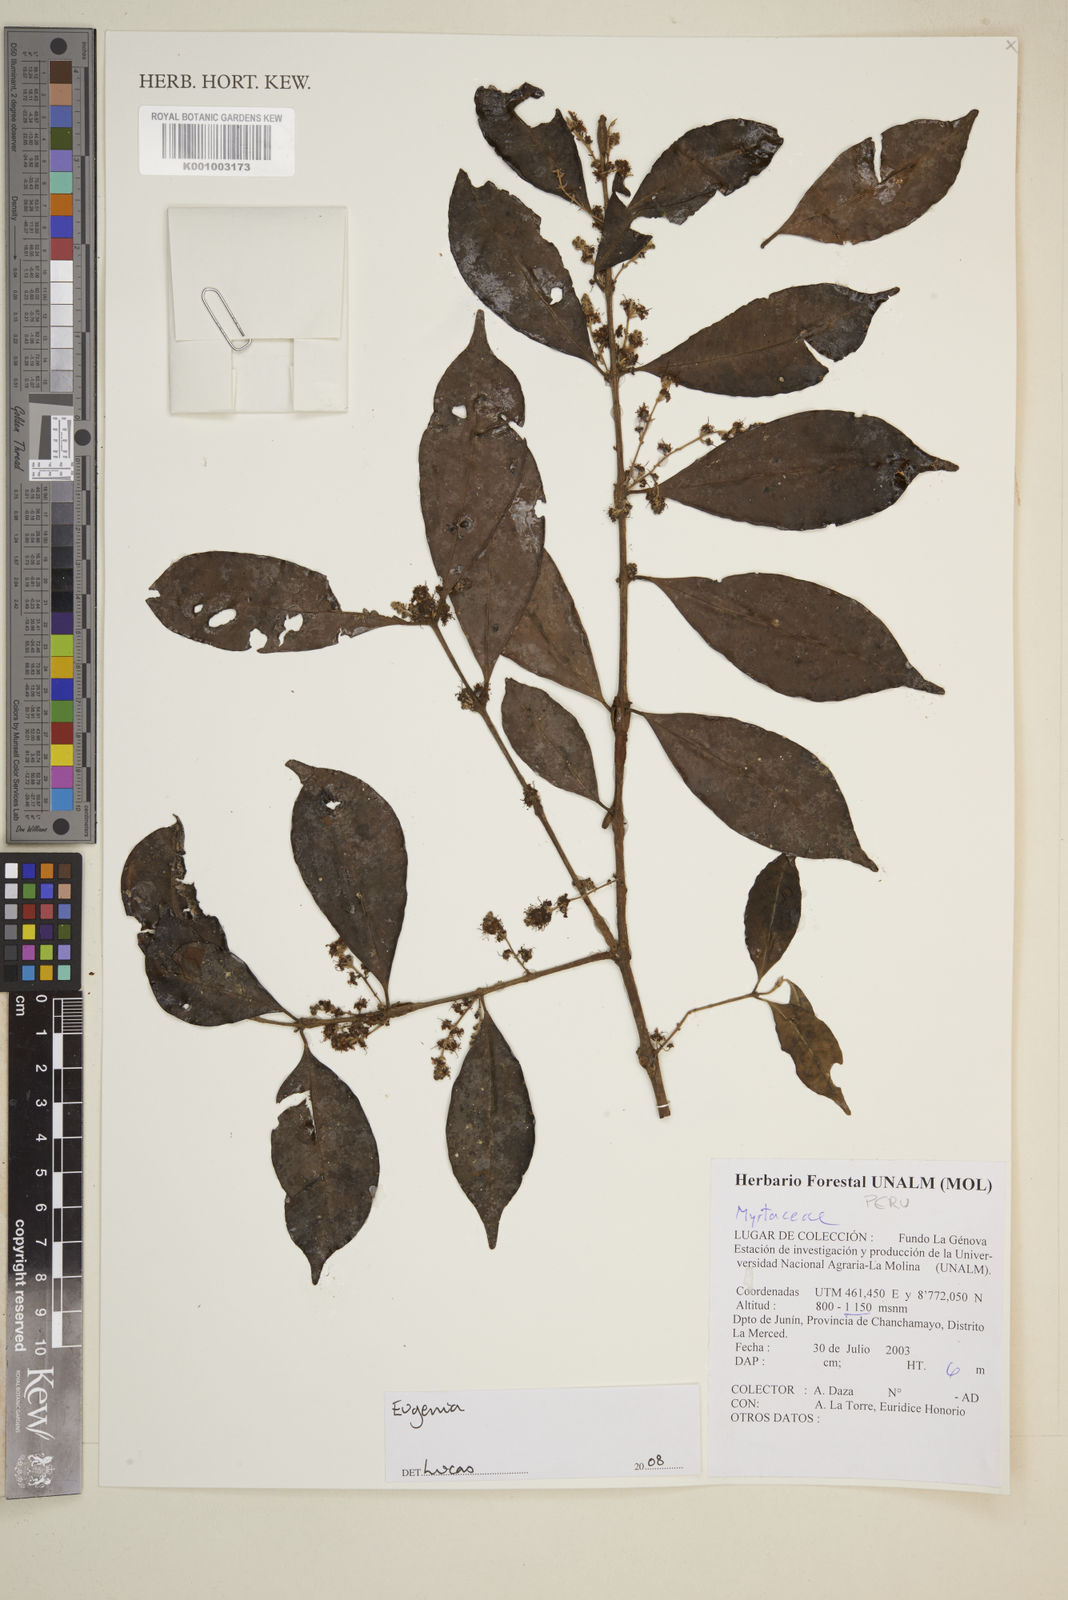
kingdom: Plantae
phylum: Tracheophyta
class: Magnoliopsida
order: Myrtales
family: Myrtaceae
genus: Eugenia
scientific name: Eugenia
